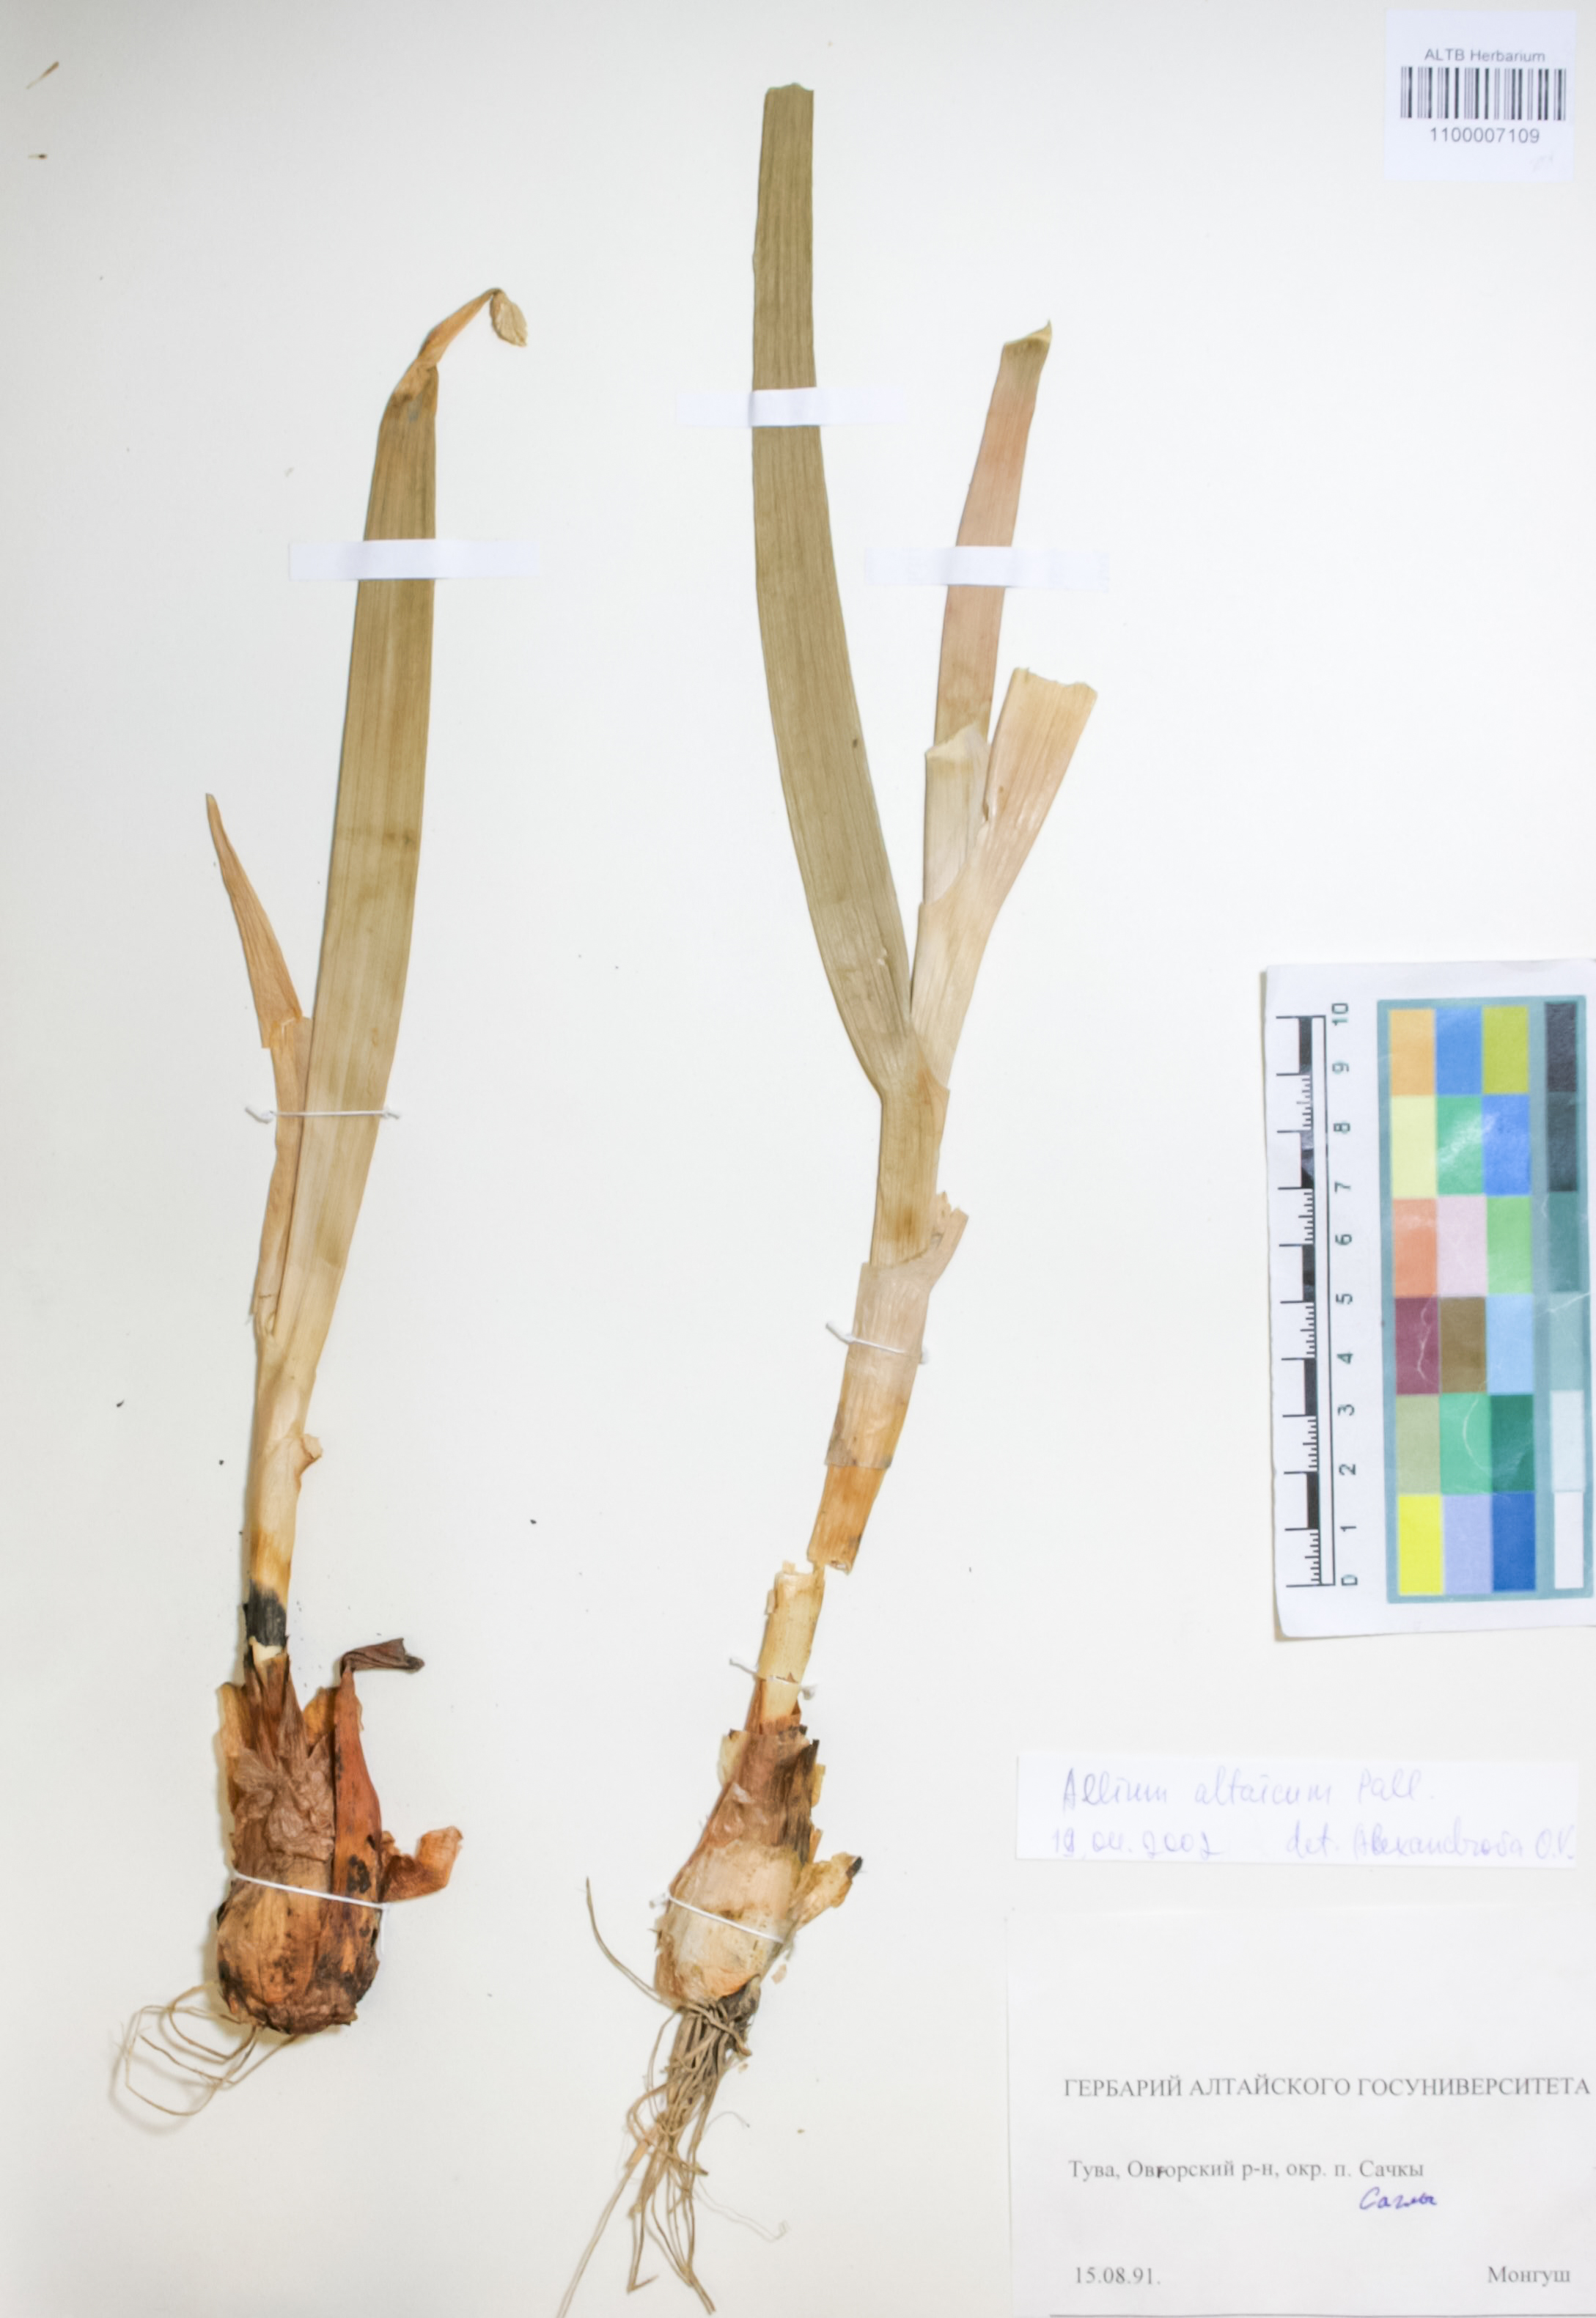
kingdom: Plantae
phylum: Tracheophyta
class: Liliopsida
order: Asparagales
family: Amaryllidaceae
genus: Allium
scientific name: Allium altaicum
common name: Altai onion
